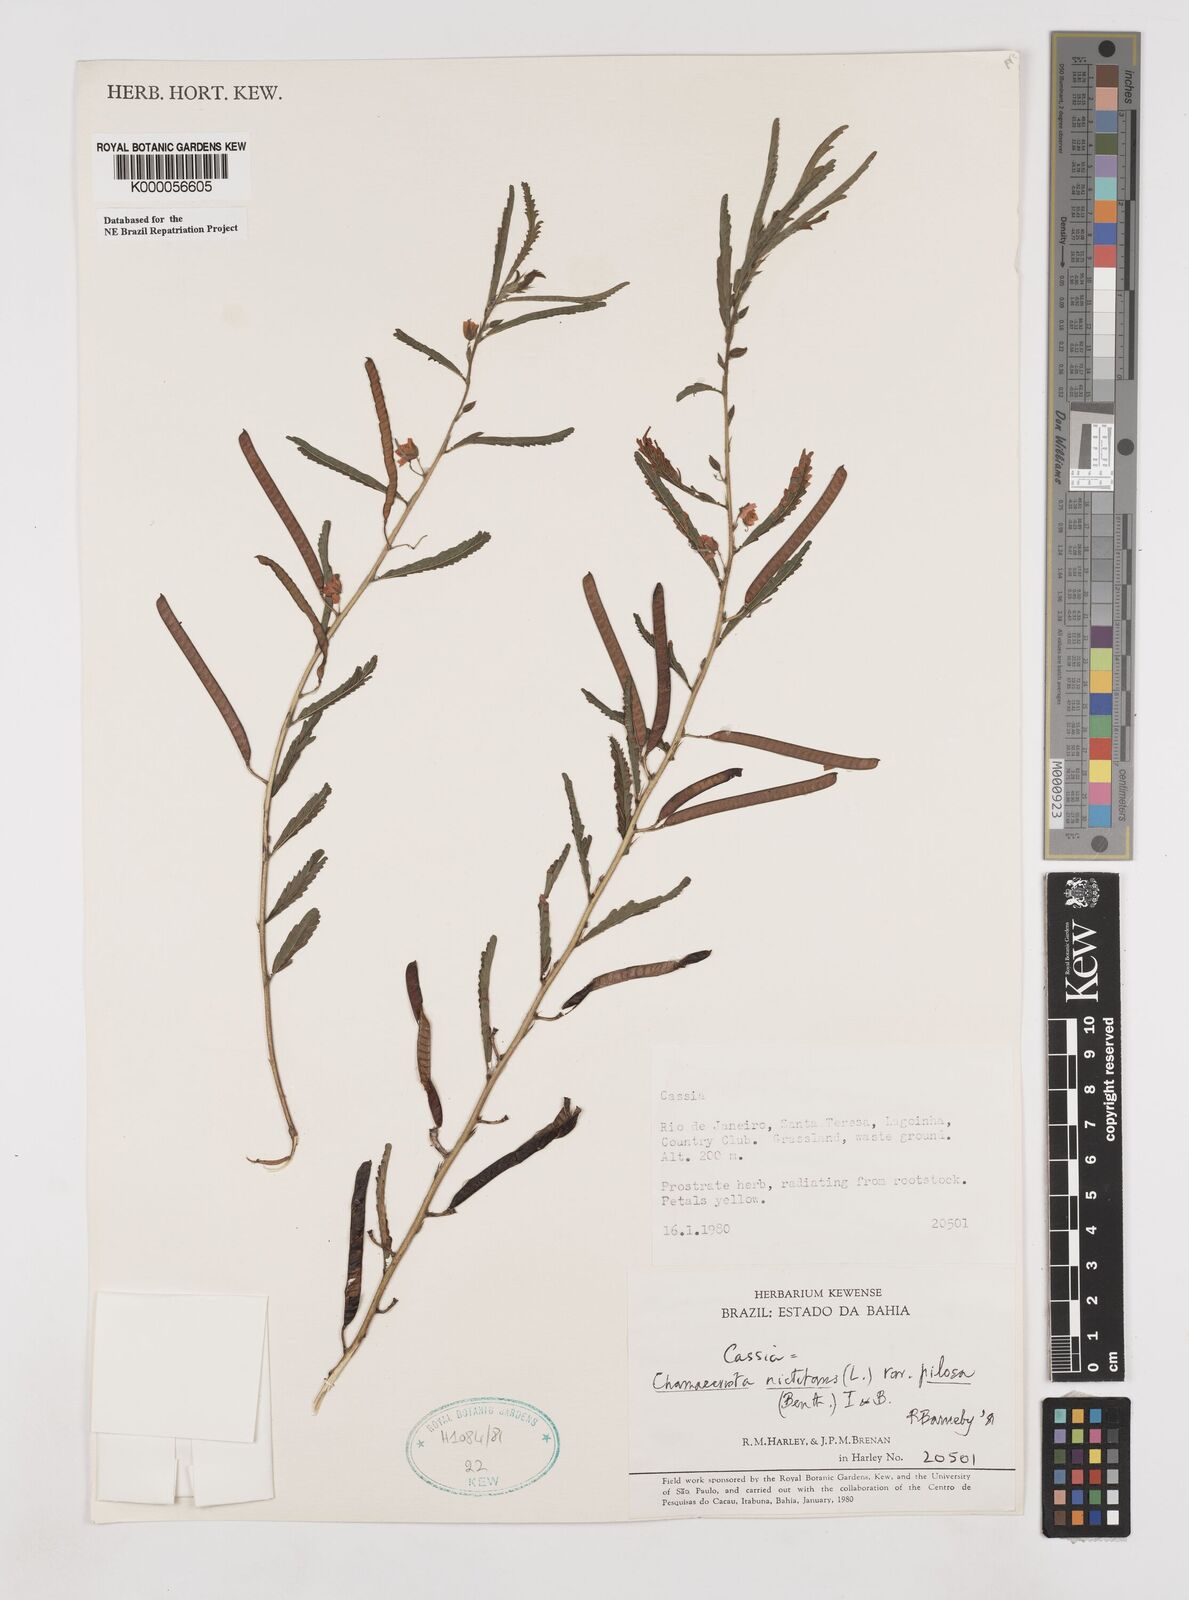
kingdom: Plantae
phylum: Tracheophyta
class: Magnoliopsida
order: Fabales
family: Fabaceae
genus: Chamaecrista
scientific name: Chamaecrista nictitans
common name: Sensitive cassia
